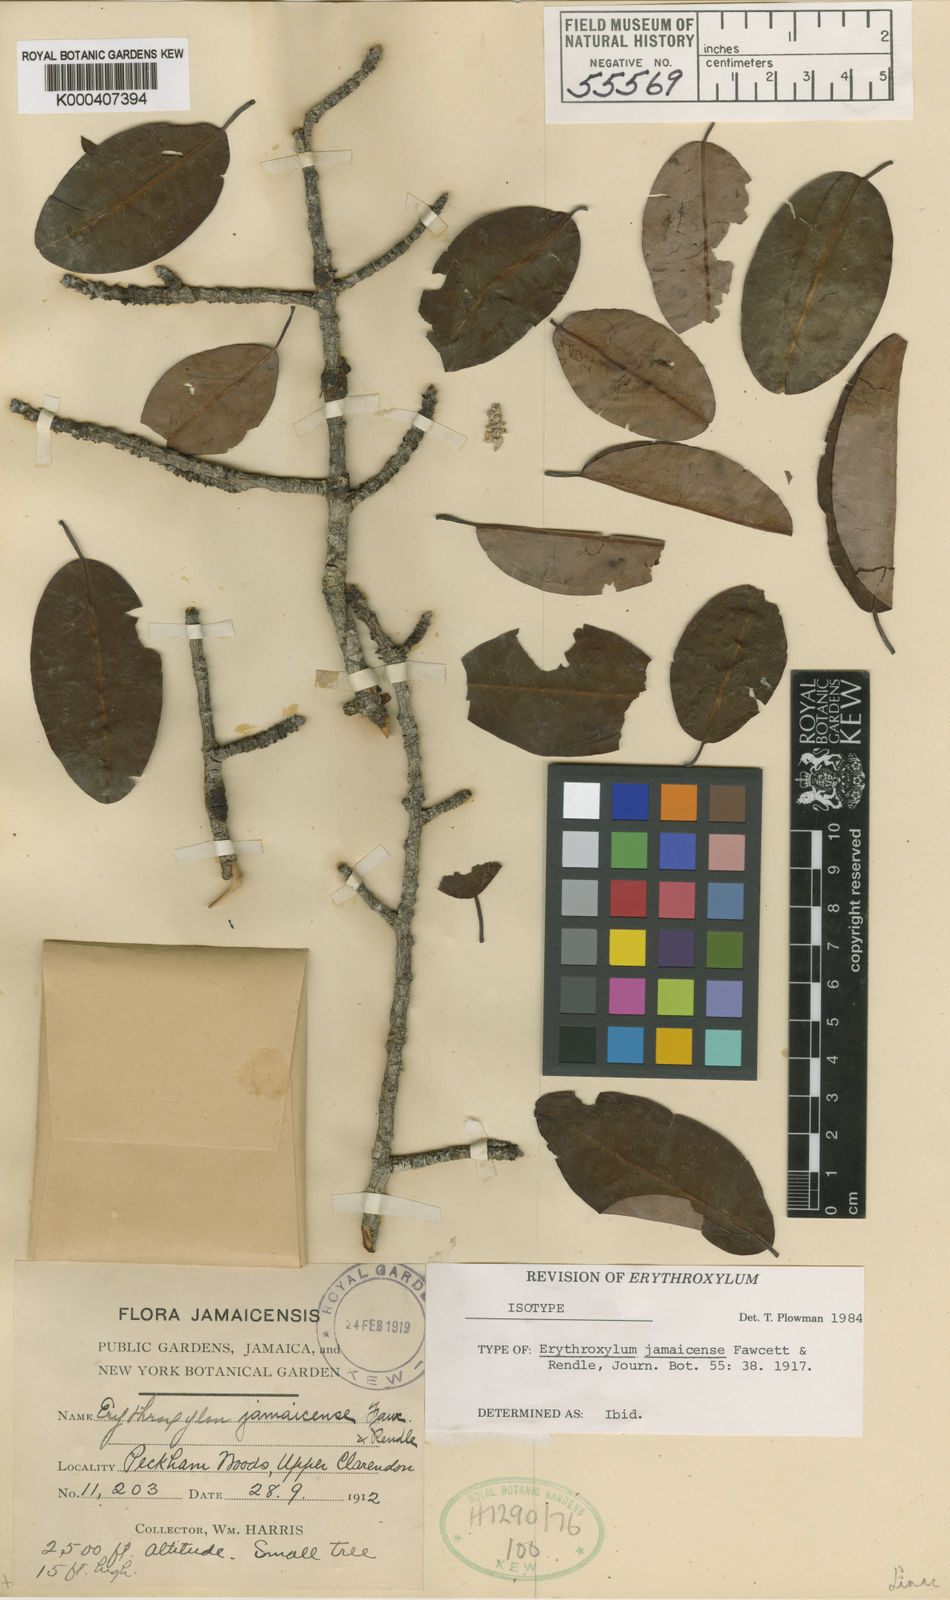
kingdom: Plantae
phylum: Tracheophyta
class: Magnoliopsida
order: Malpighiales
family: Erythroxylaceae
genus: Erythroxylum
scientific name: Erythroxylum jamaicense
